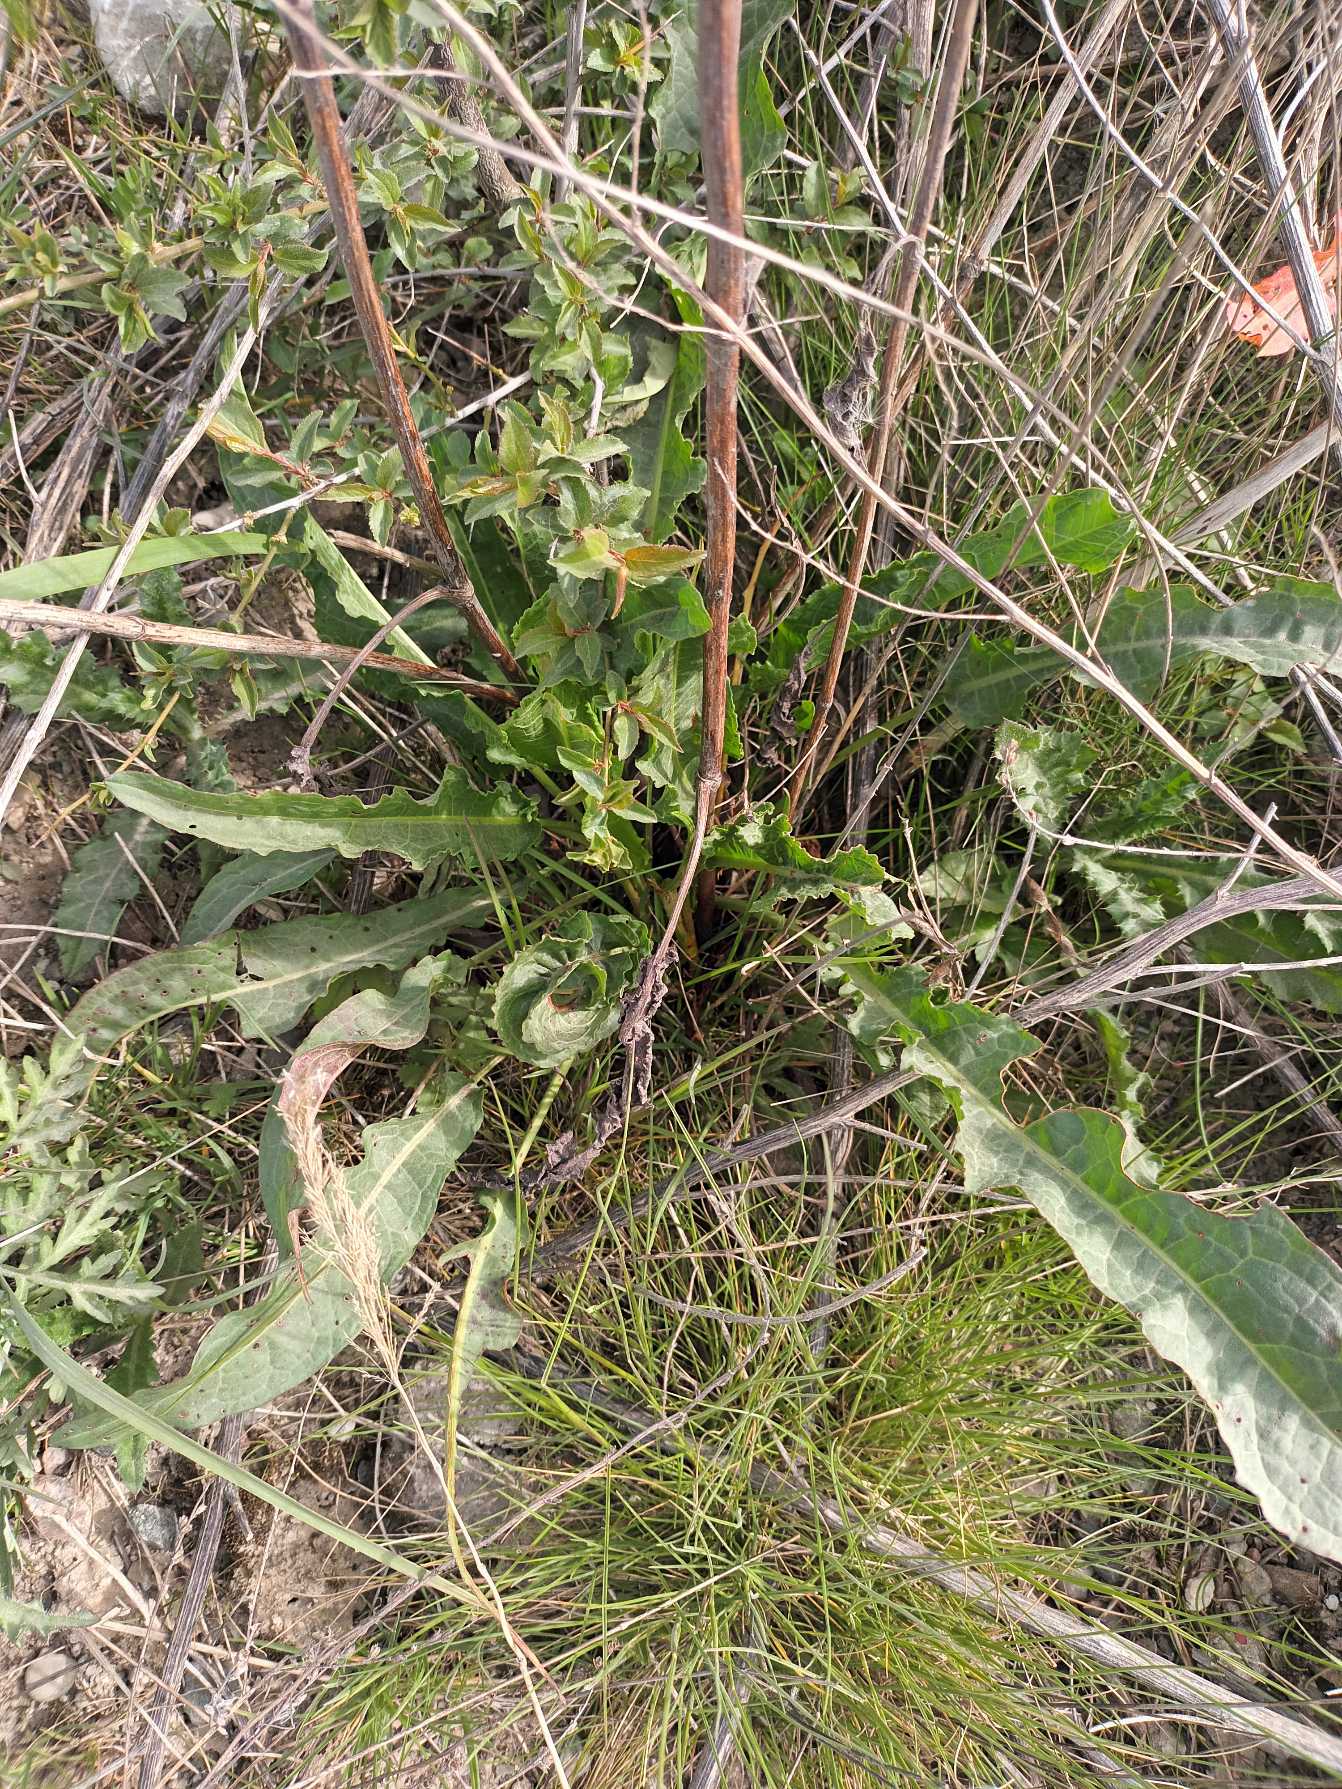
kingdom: Plantae
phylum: Tracheophyta
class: Magnoliopsida
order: Caryophyllales
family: Polygonaceae
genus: Rumex
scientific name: Rumex crispus
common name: Kruset skræppe
